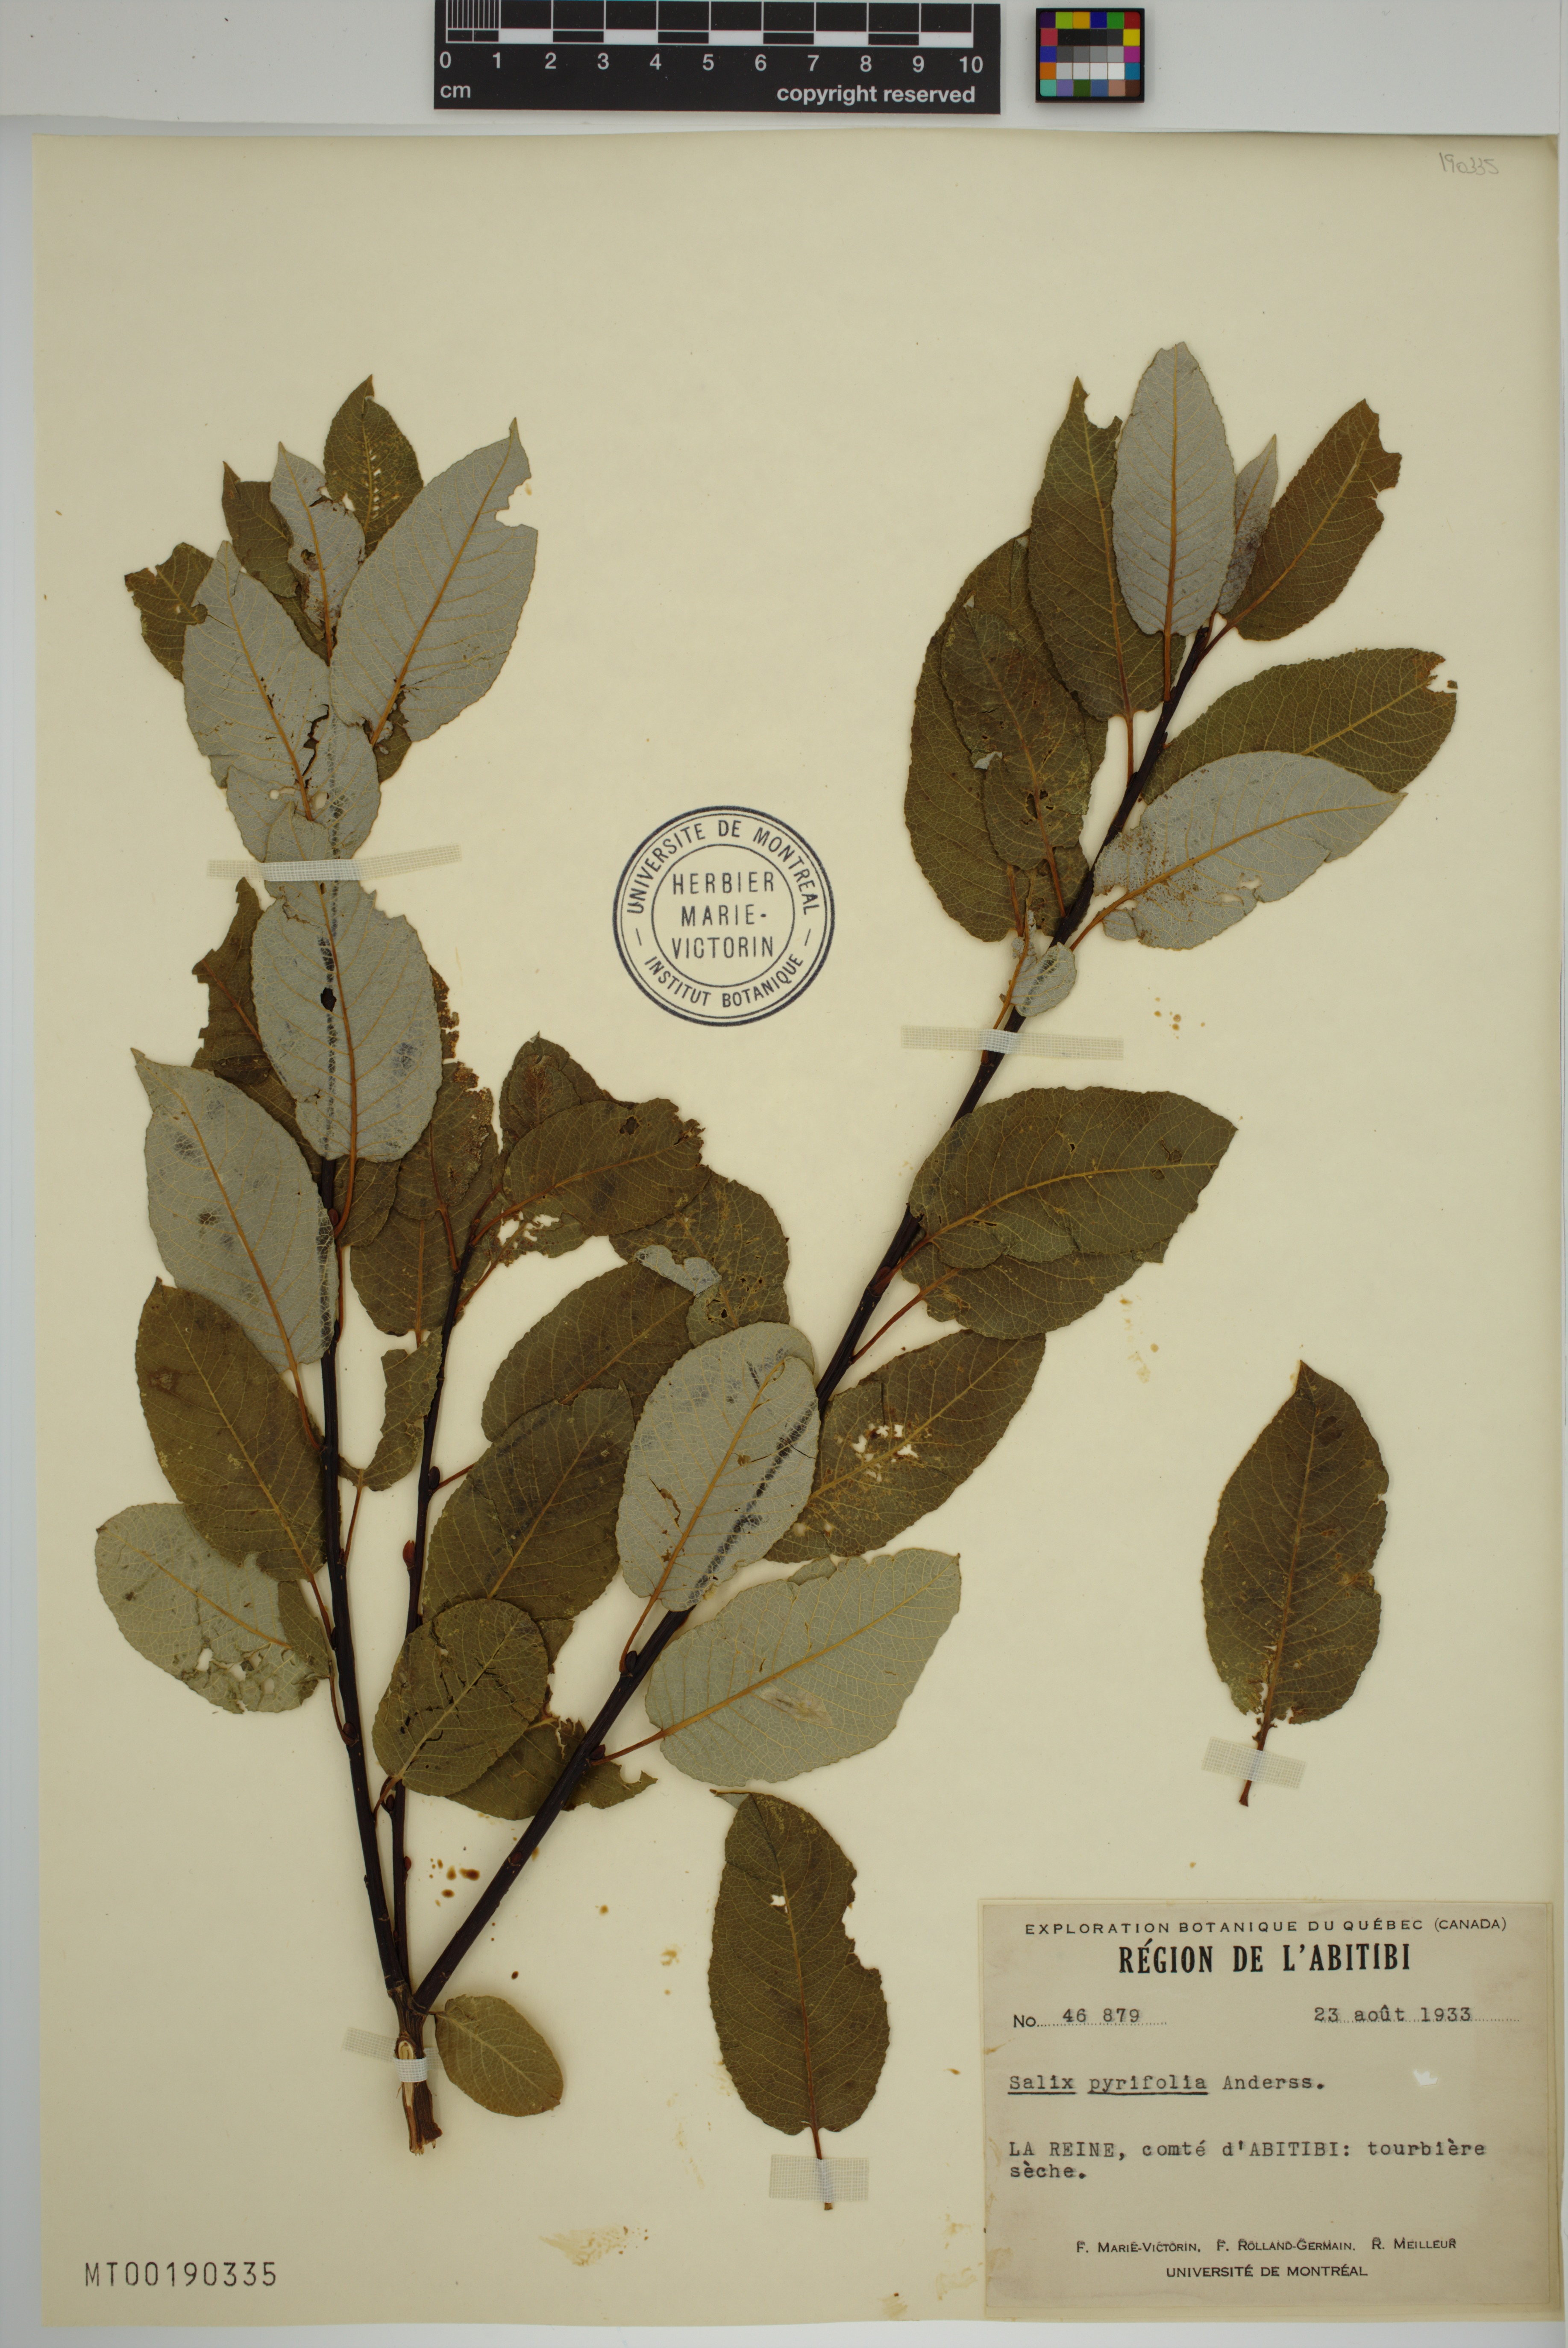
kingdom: Plantae
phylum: Tracheophyta
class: Magnoliopsida
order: Malpighiales
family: Salicaceae
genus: Salix
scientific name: Salix pyrifolia
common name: Balsam willow
